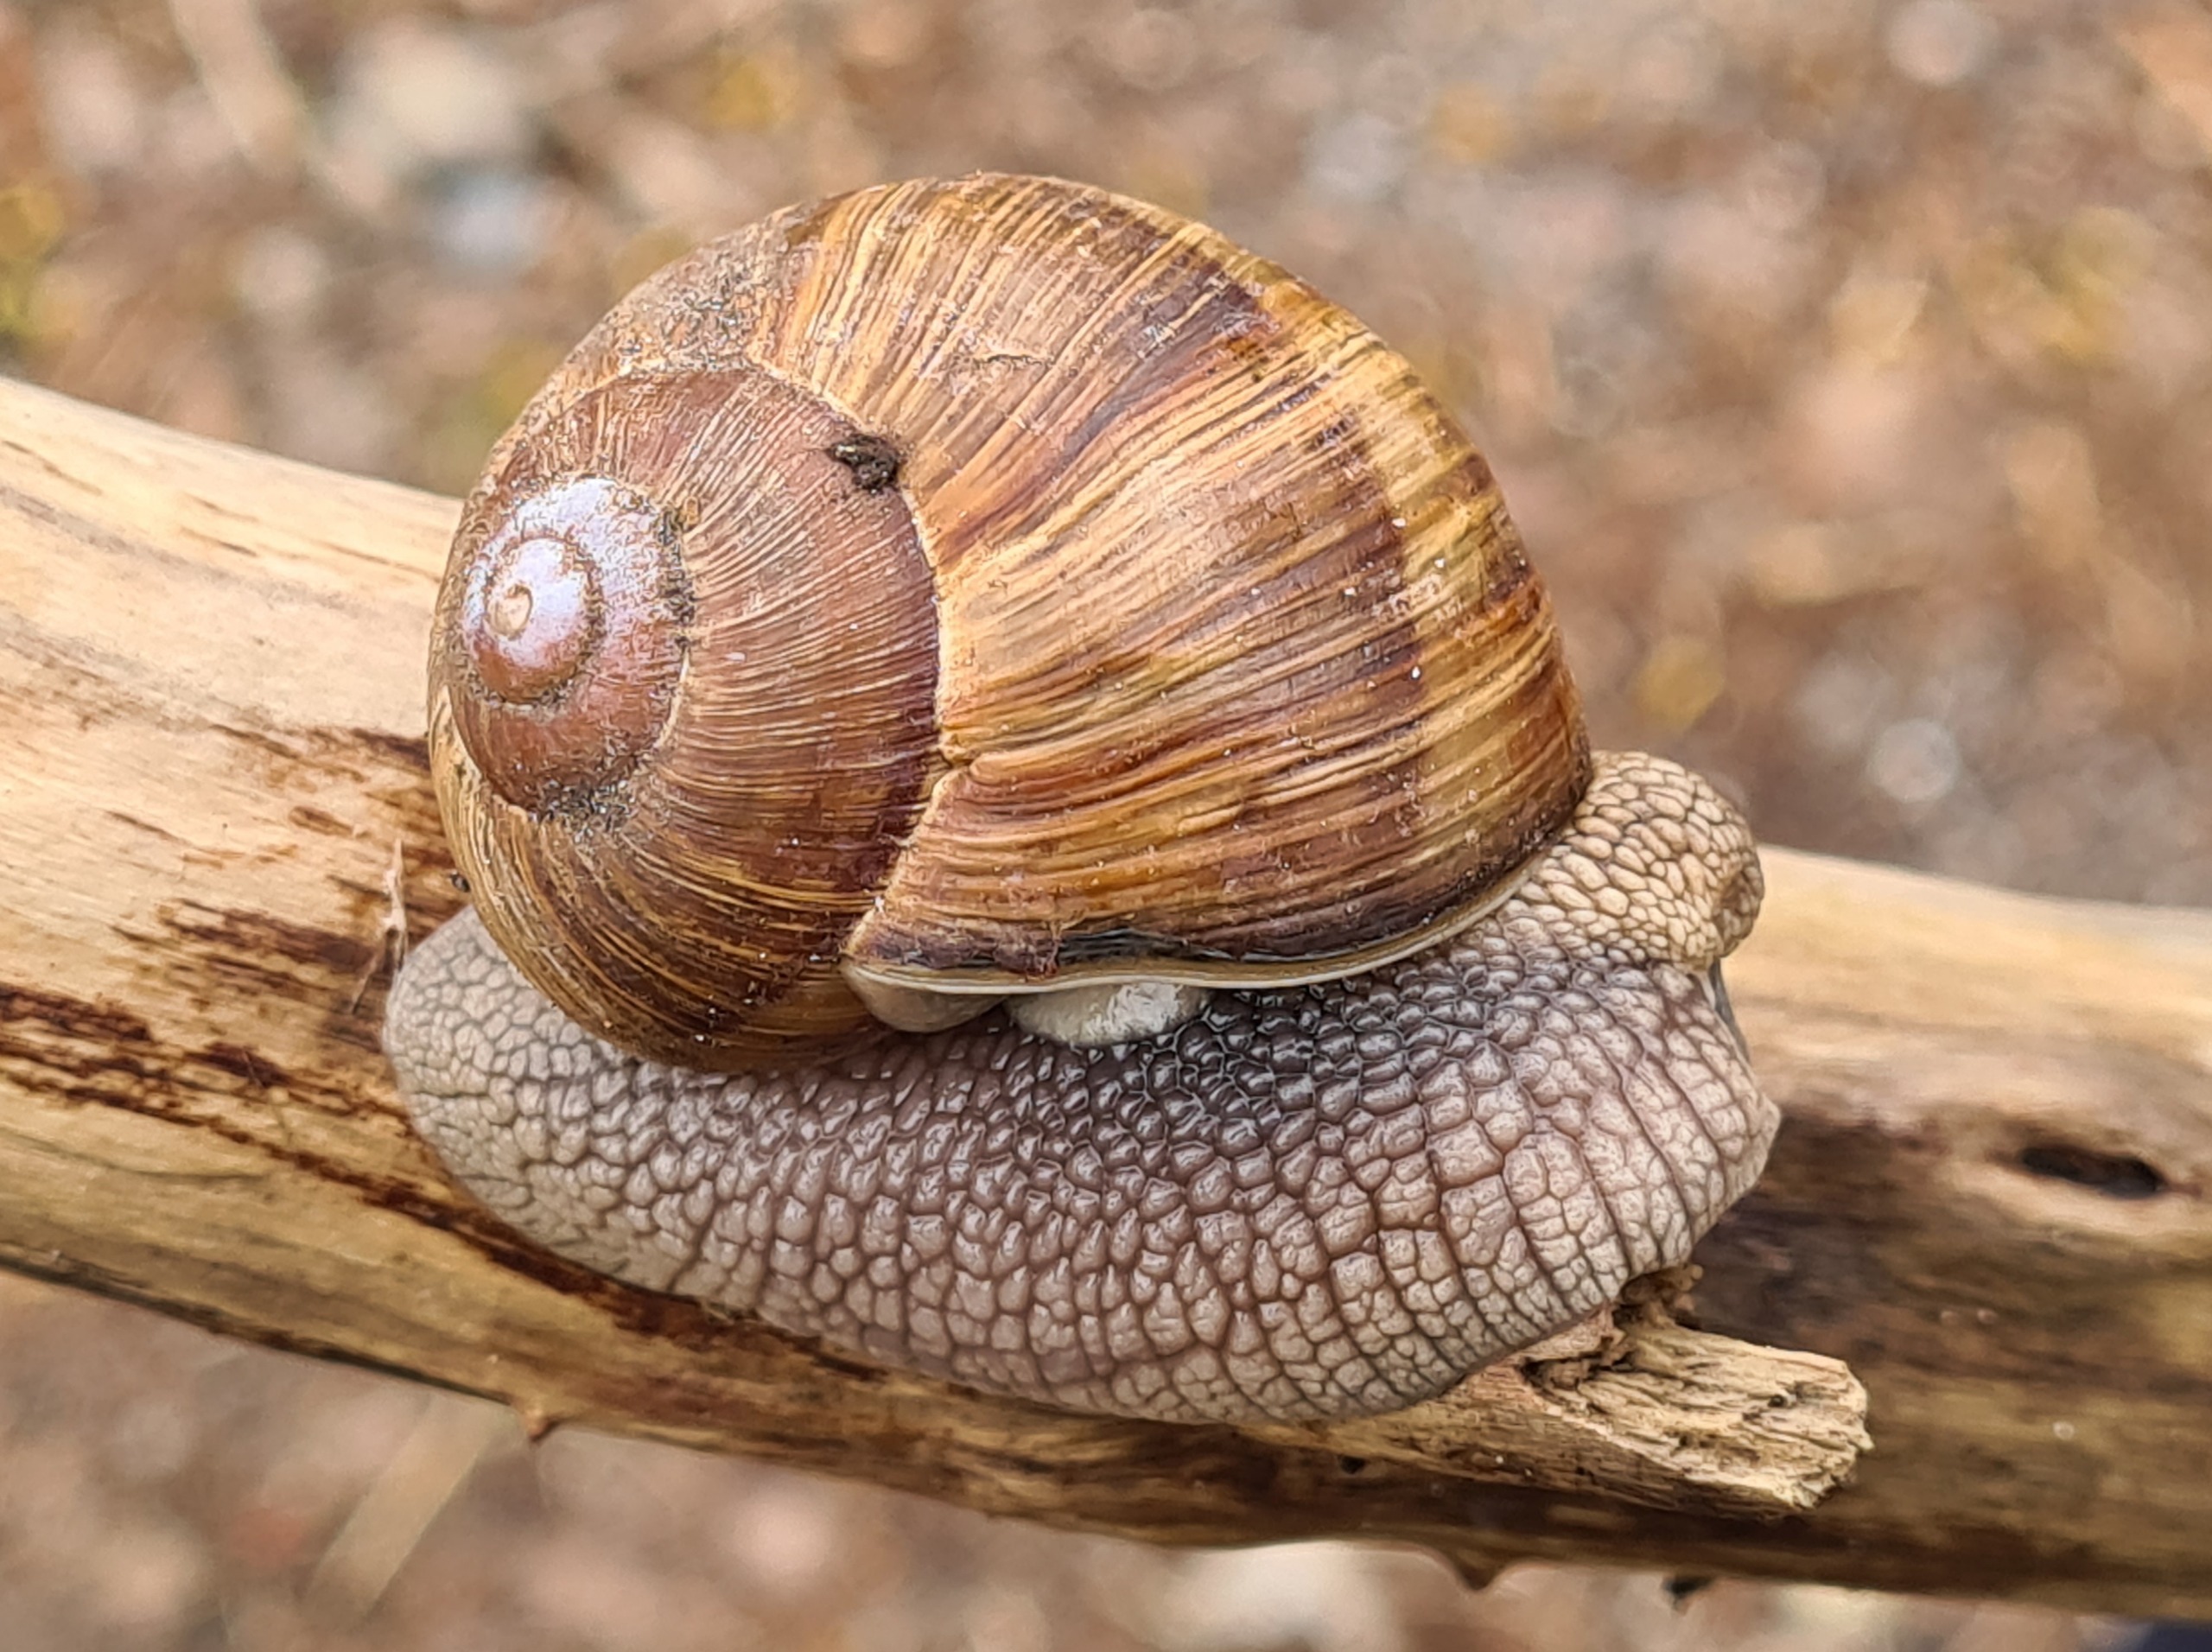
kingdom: Animalia
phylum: Mollusca
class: Gastropoda
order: Stylommatophora
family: Helicidae
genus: Helix
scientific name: Helix pomatia
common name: Vinbjergsnegl
